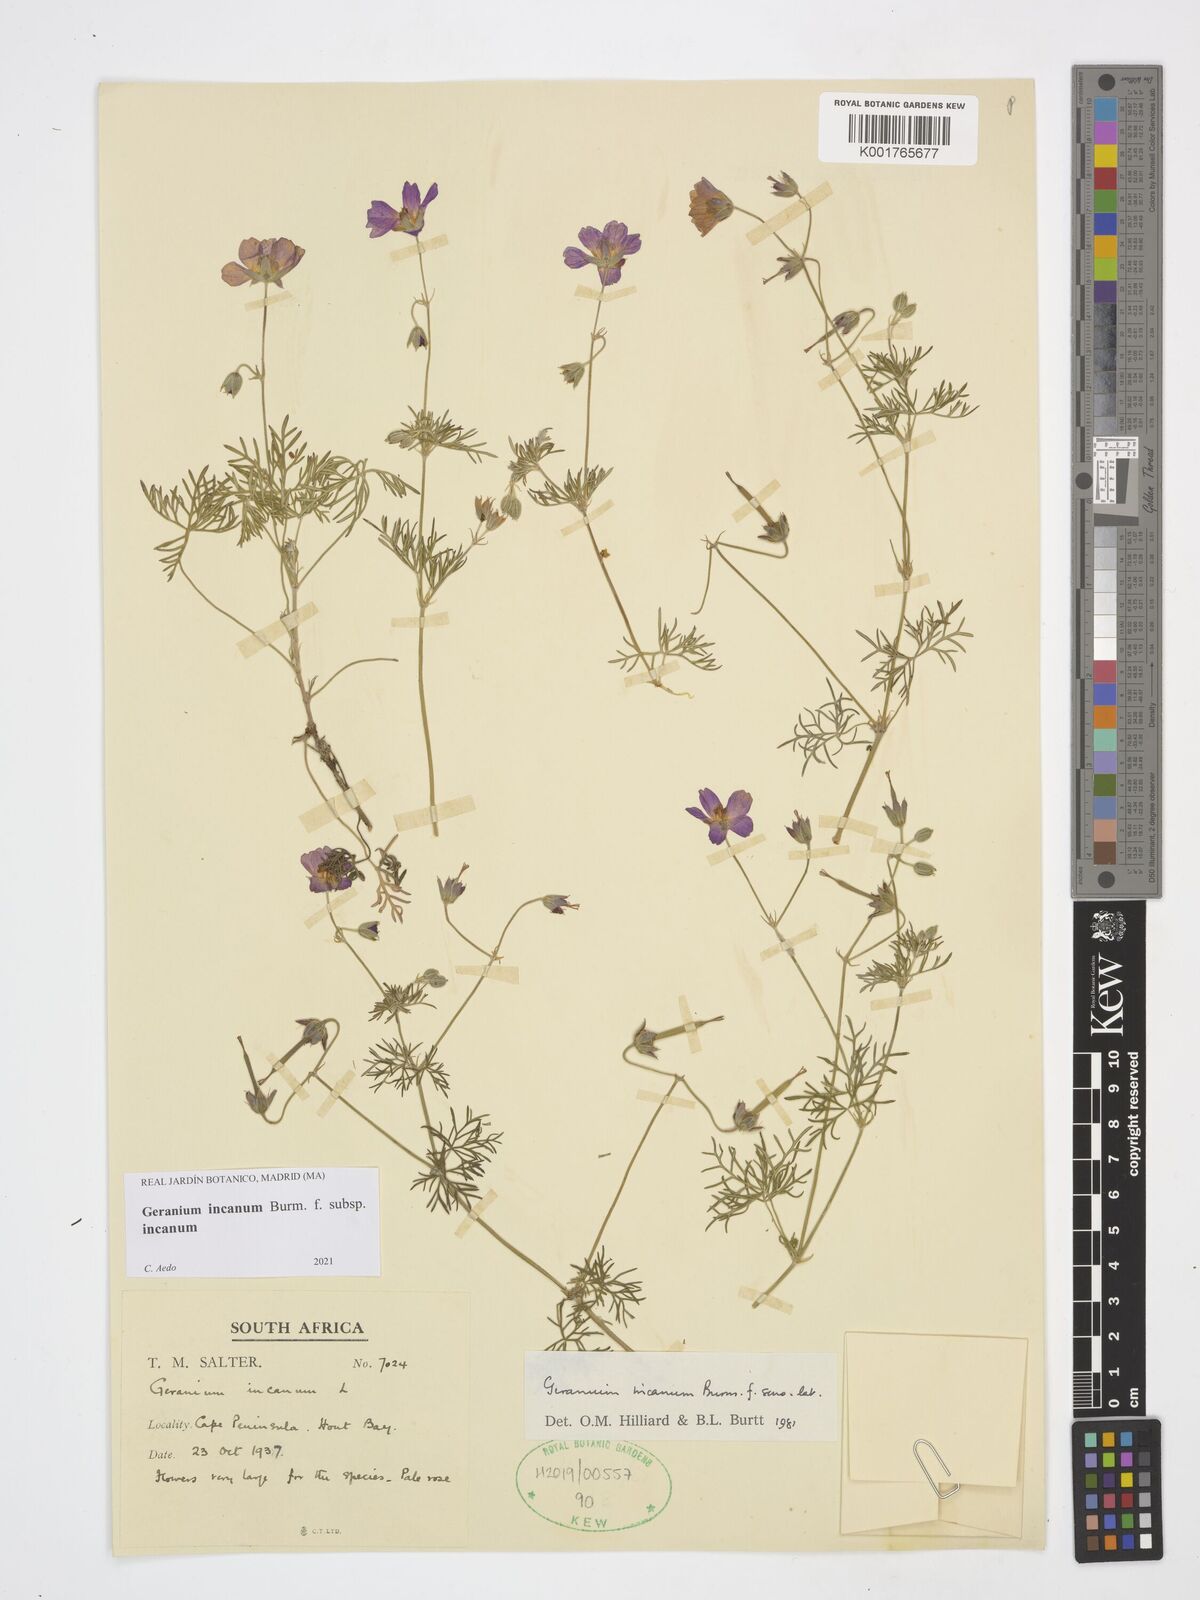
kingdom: Plantae
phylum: Tracheophyta
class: Magnoliopsida
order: Geraniales
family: Geraniaceae
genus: Geranium
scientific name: Geranium incanum
